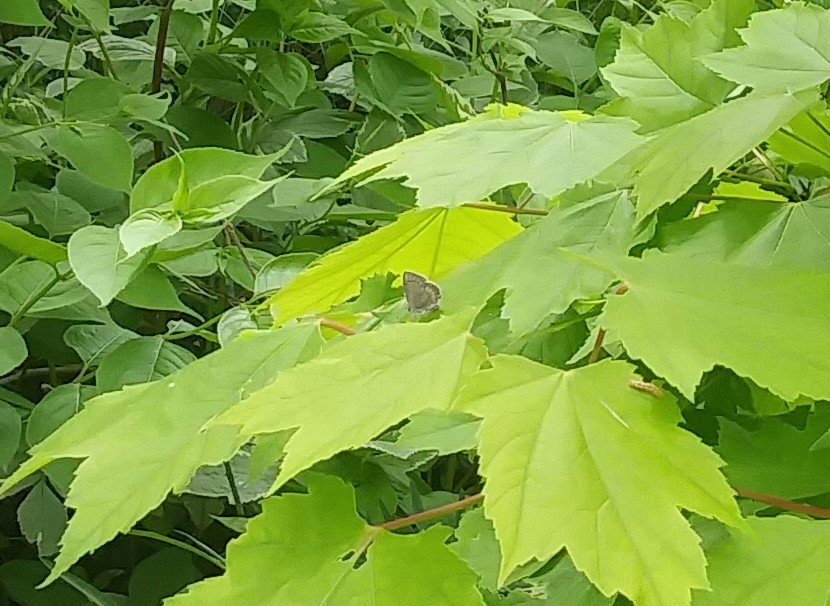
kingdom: Animalia
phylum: Arthropoda
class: Insecta
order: Lepidoptera
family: Lycaenidae
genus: Celastrina
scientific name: Celastrina lucia
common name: Northern Spring Azure
